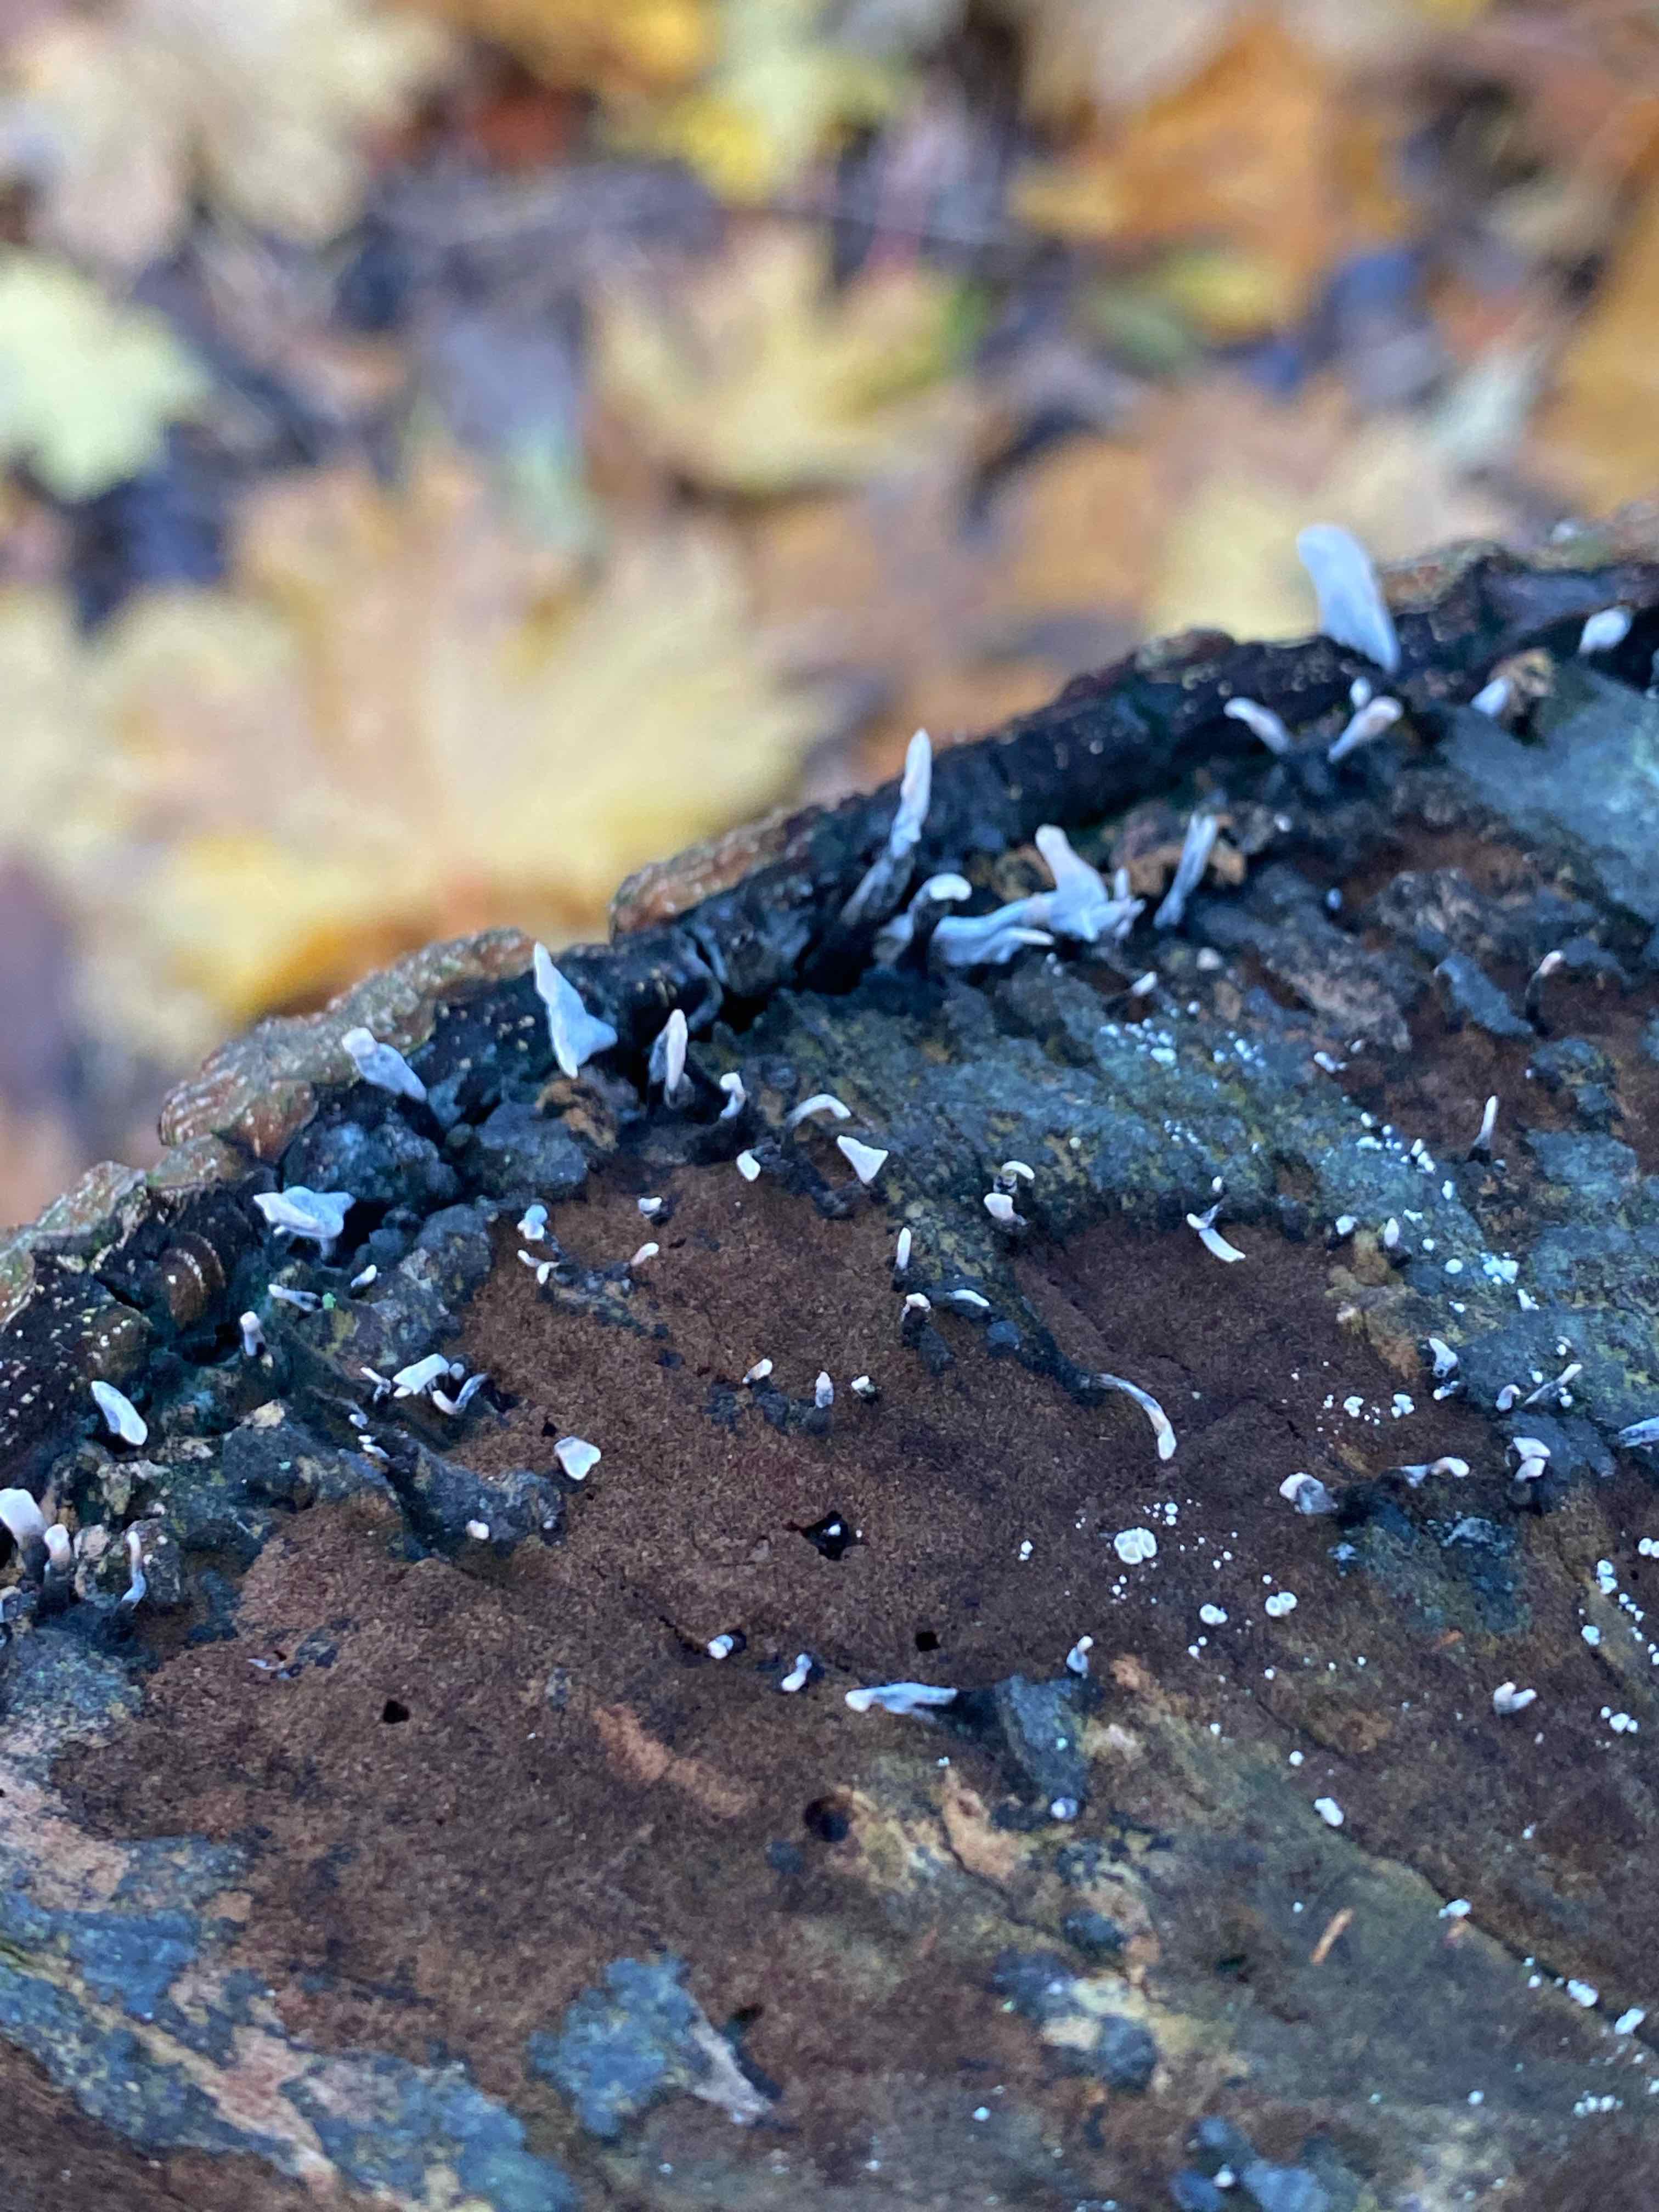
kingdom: Fungi
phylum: Ascomycota
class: Sordariomycetes
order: Xylariales
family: Xylariaceae
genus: Xylaria
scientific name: Xylaria hypoxylon
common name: grenet stødsvamp
